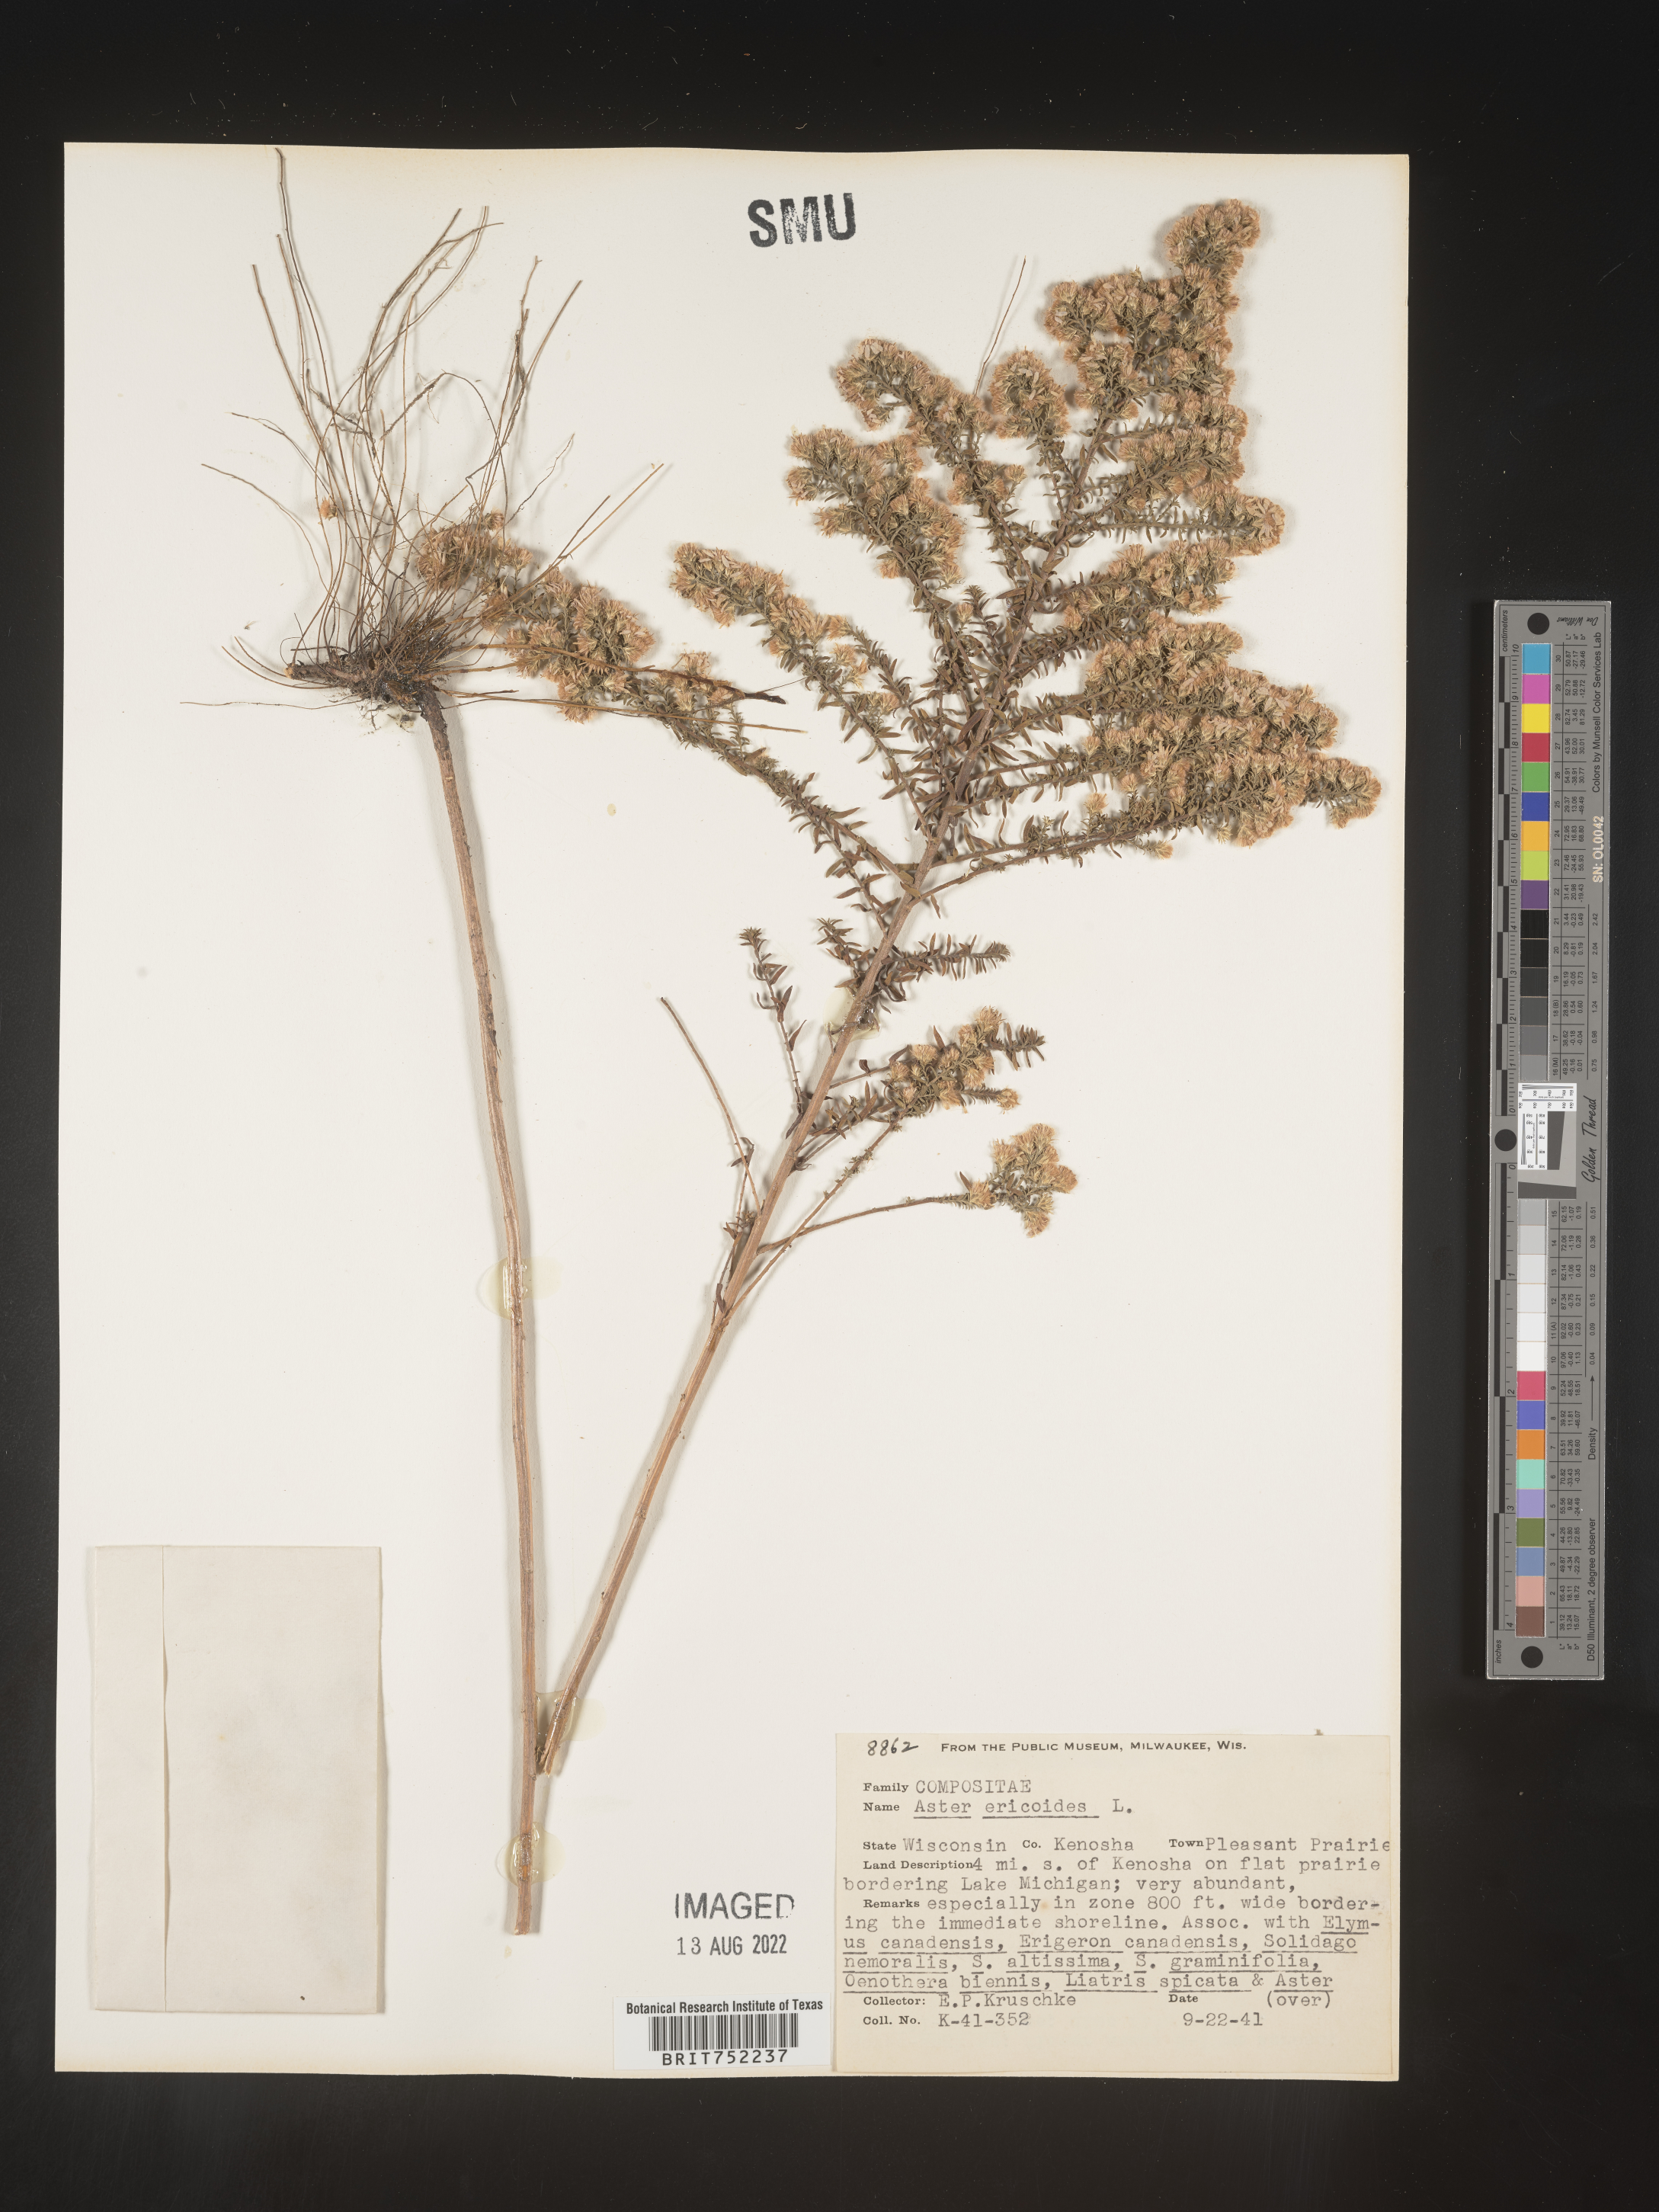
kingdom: Plantae
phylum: Tracheophyta
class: Magnoliopsida
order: Asterales
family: Asteraceae
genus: Symphyotrichum
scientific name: Symphyotrichum ericoides
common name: Heath aster
